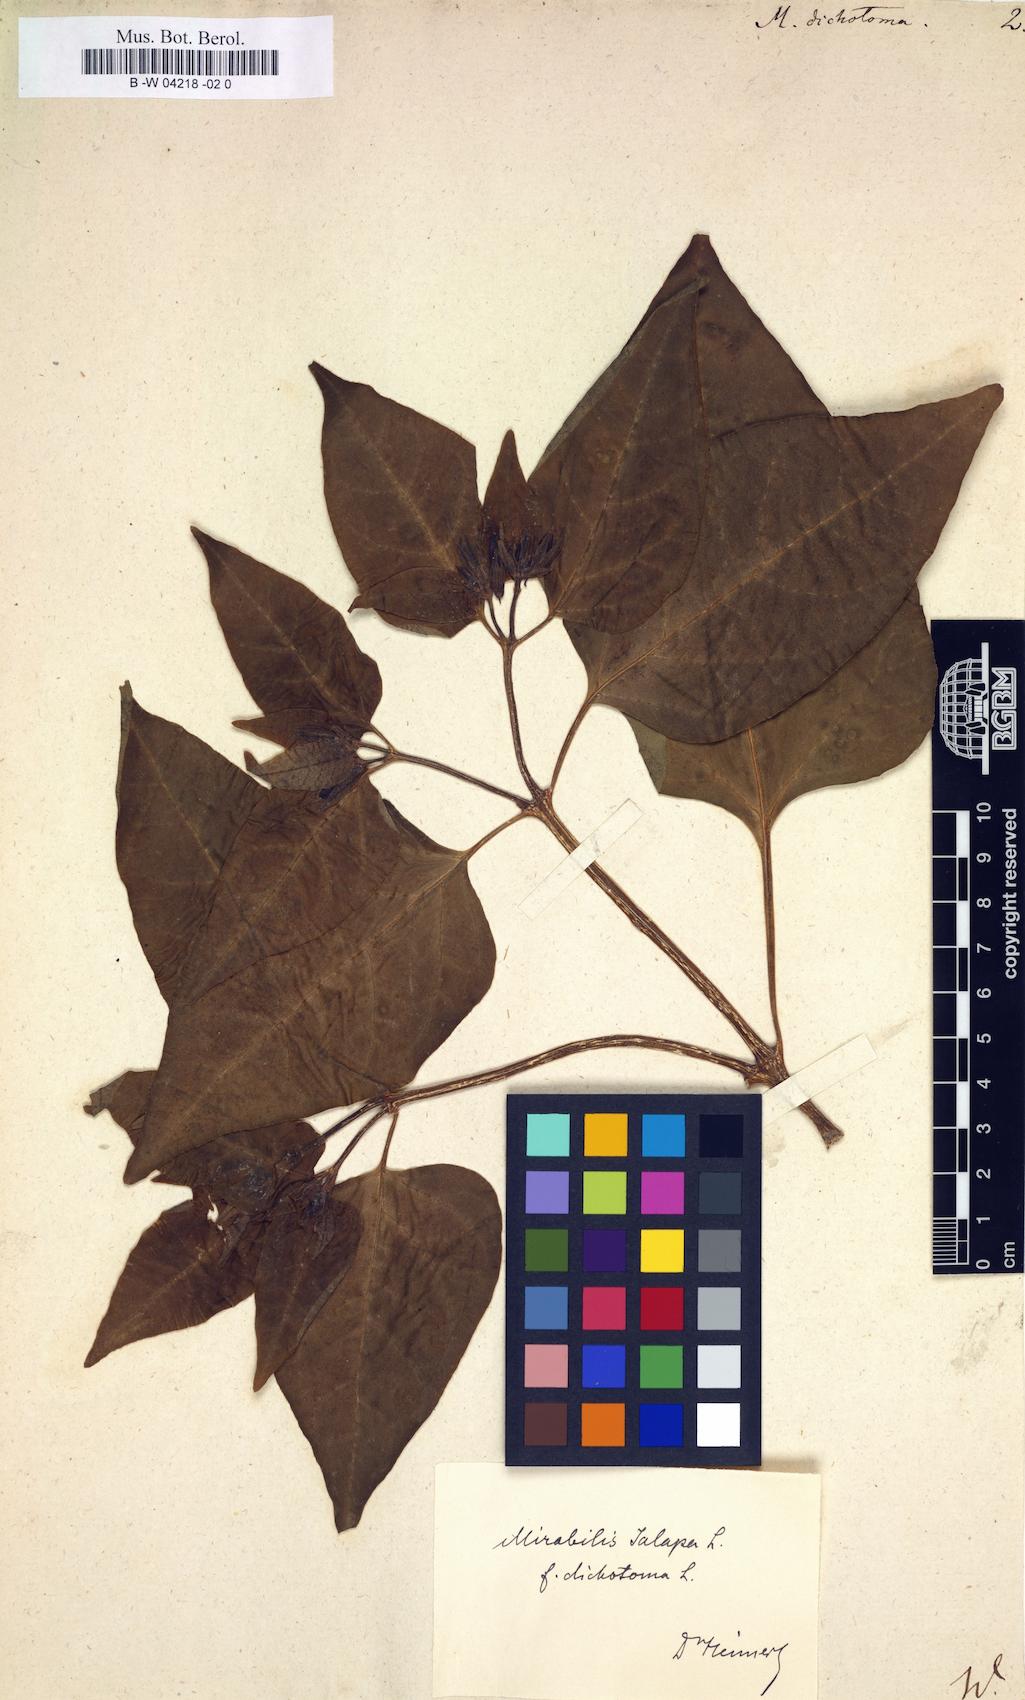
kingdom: Plantae
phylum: Tracheophyta
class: Magnoliopsida
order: Caryophyllales
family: Nyctaginaceae
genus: Mirabilis
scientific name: Mirabilis jalapa
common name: Marvel-of-peru
